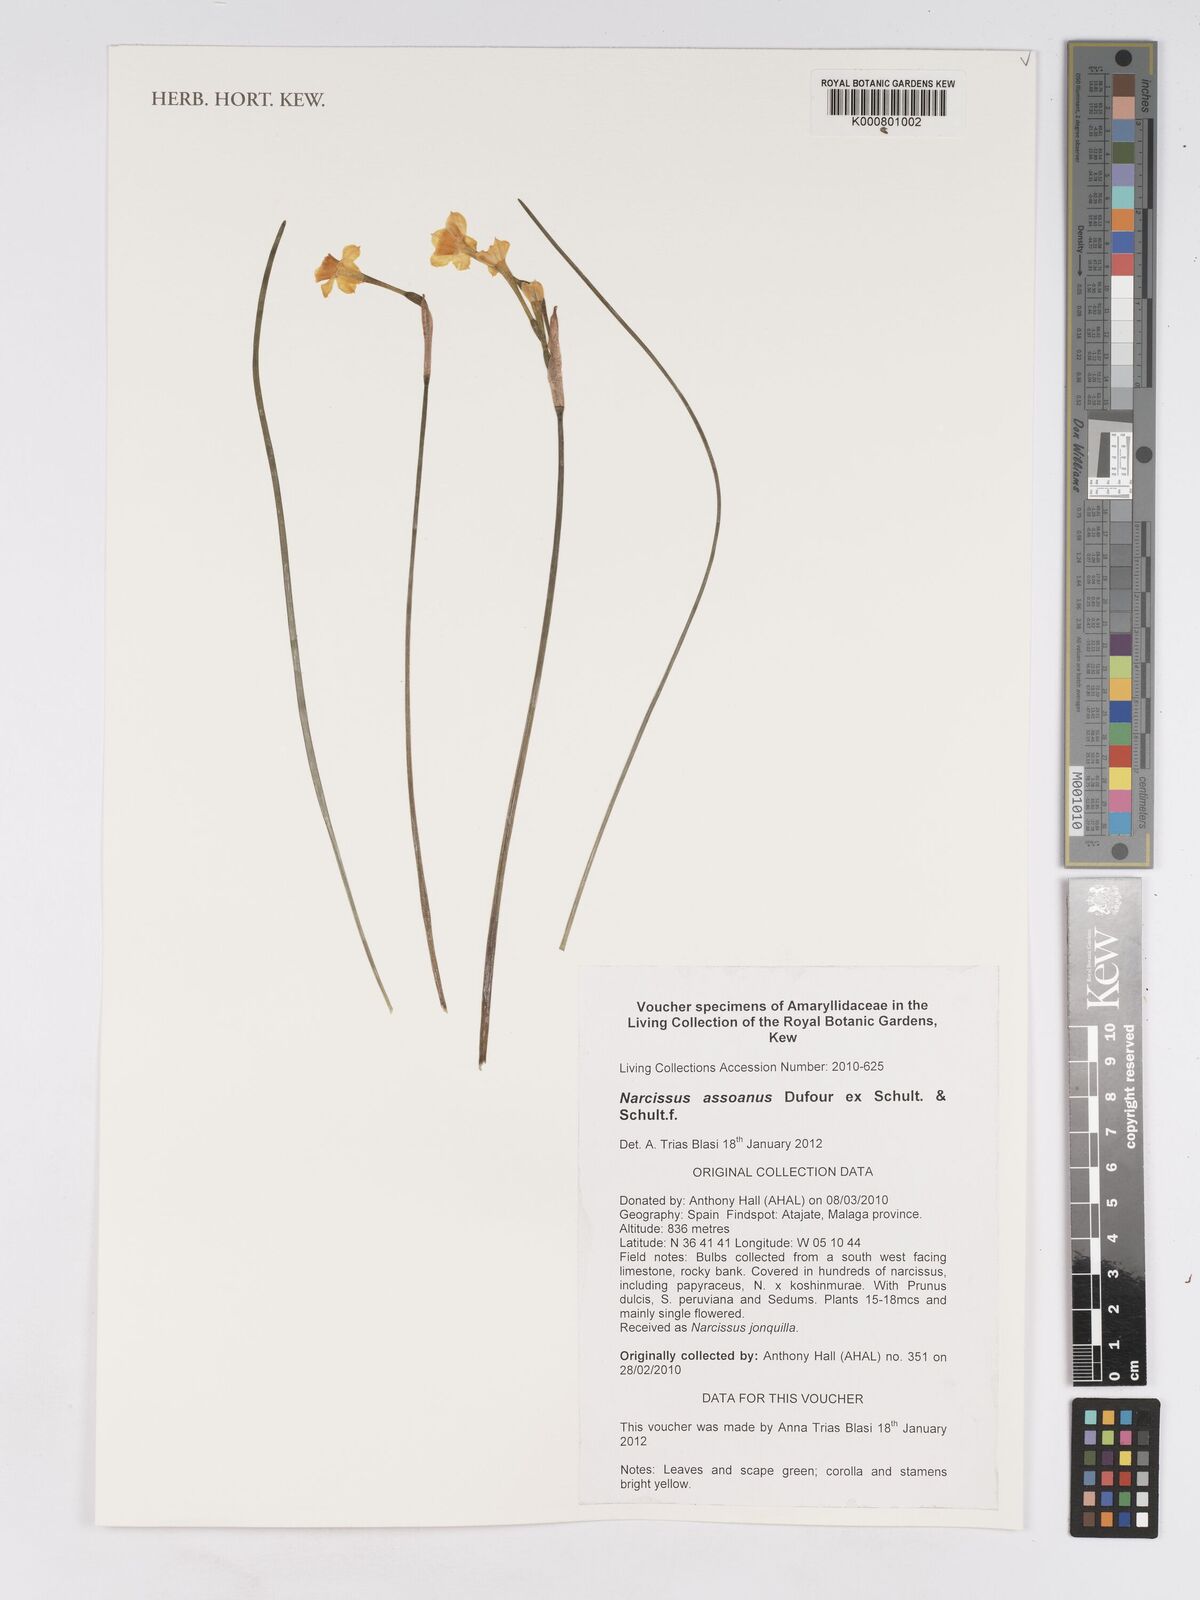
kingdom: Plantae
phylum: Tracheophyta
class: Liliopsida
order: Asparagales
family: Amaryllidaceae
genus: Narcissus
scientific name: Narcissus assoanus
